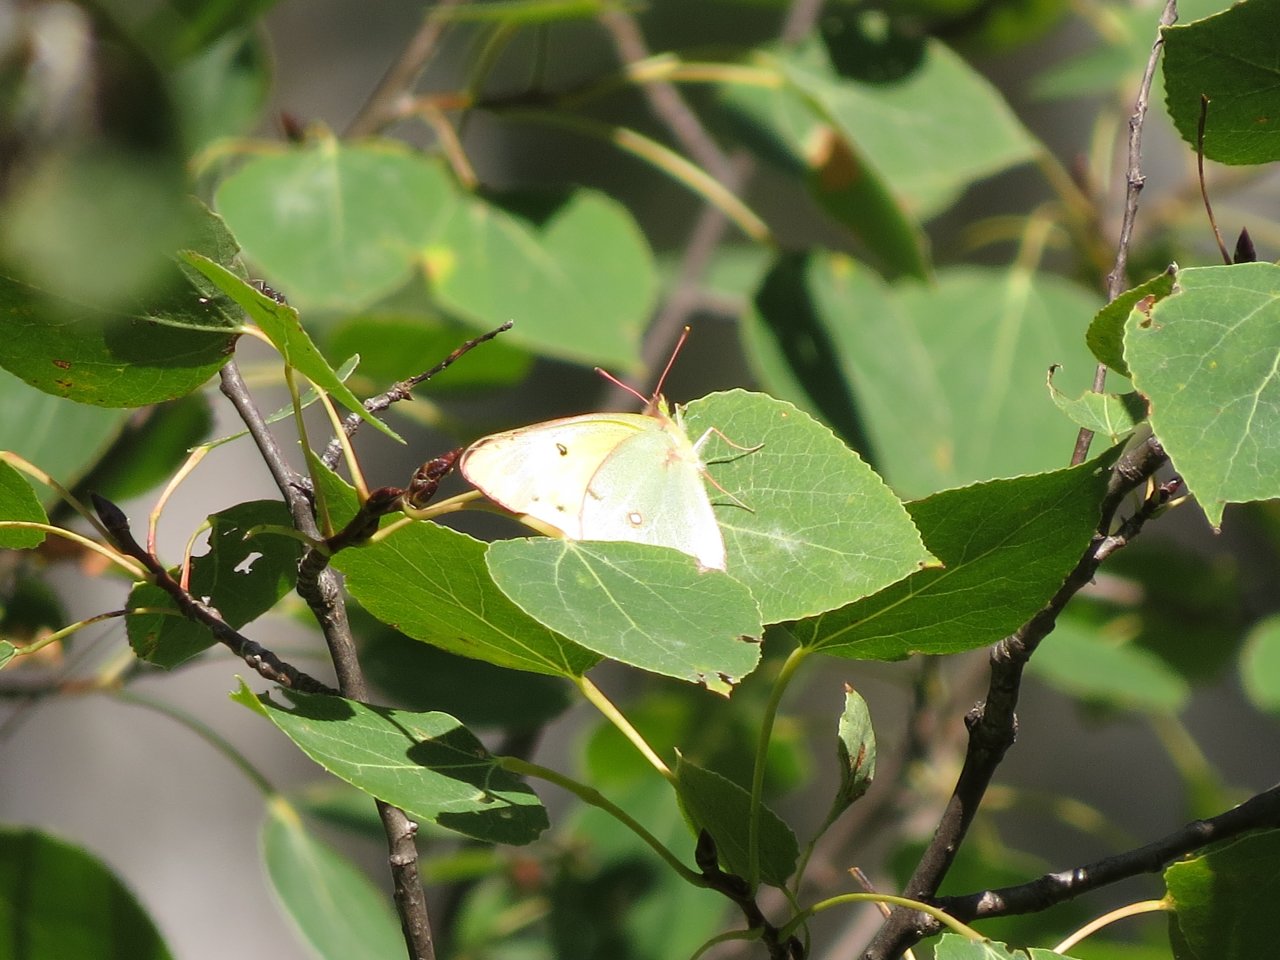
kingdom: Animalia
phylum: Arthropoda
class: Insecta
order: Lepidoptera
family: Pieridae
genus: Colias
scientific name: Colias philodice
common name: Clouded Sulphur
